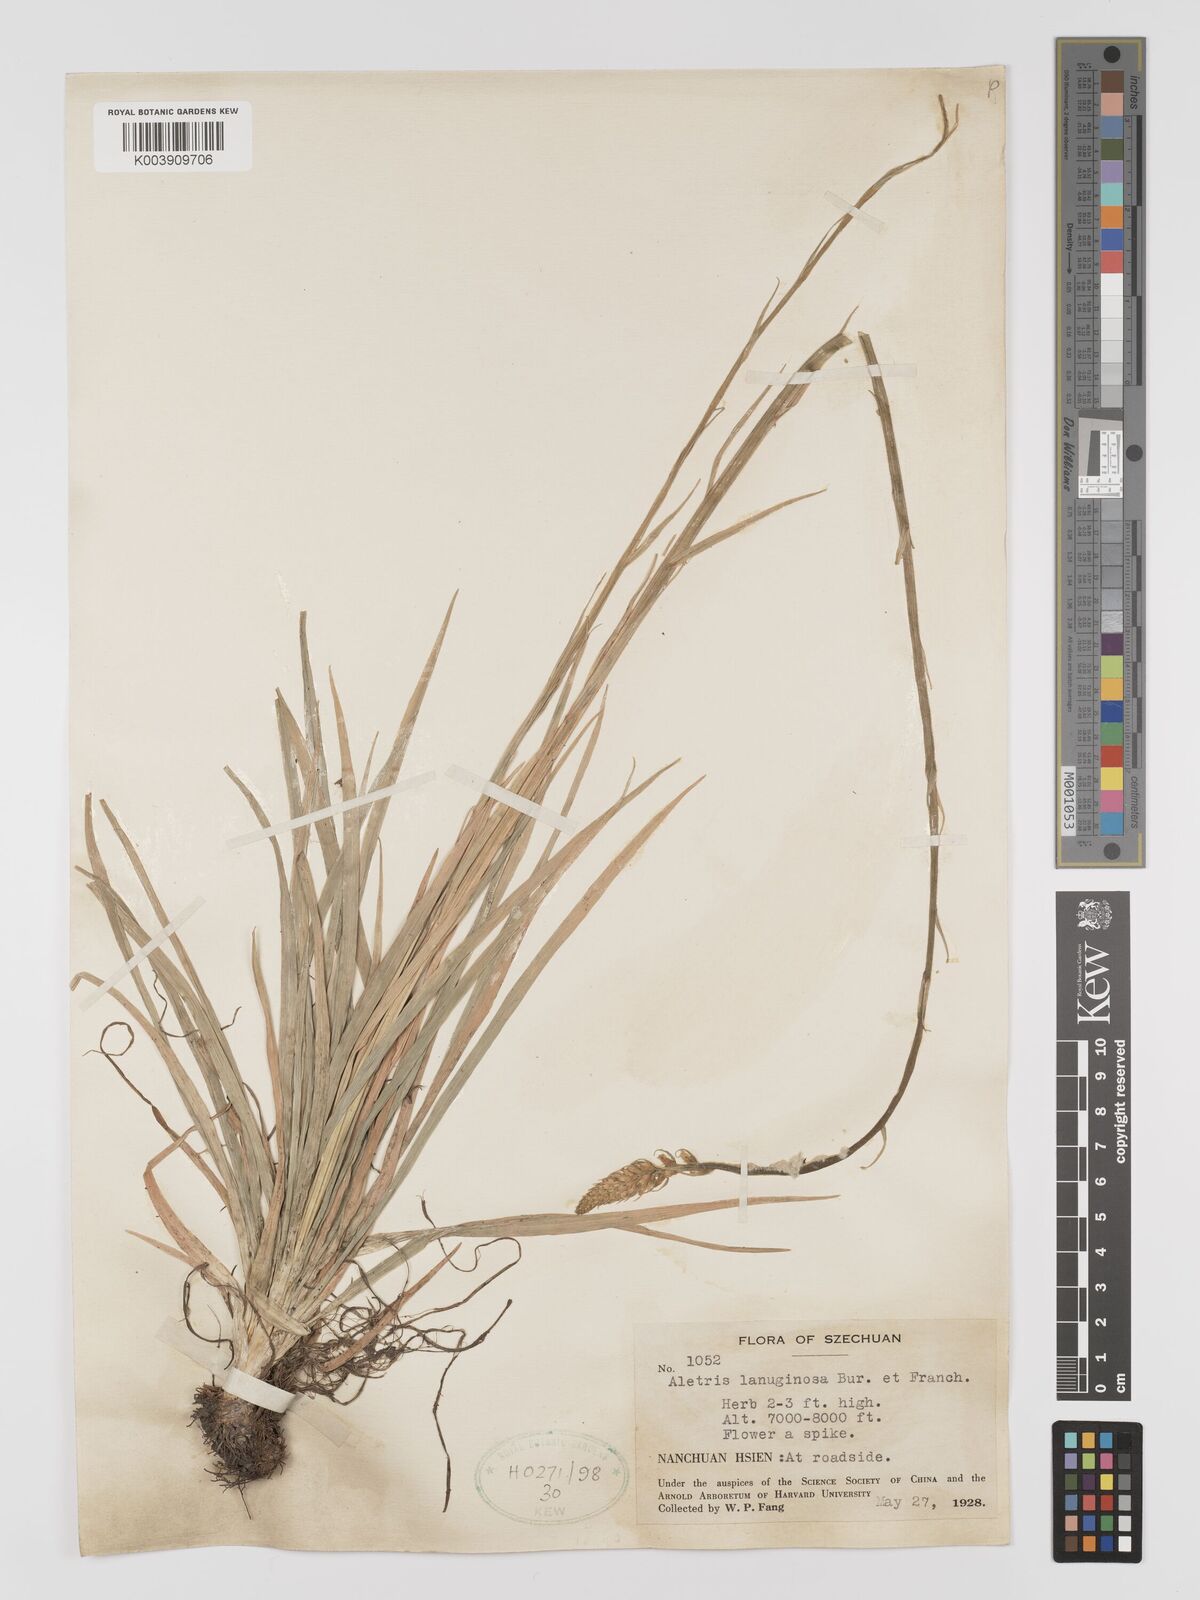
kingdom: Plantae
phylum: Tracheophyta
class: Liliopsida
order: Dioscoreales
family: Nartheciaceae
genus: Aletris
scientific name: Aletris pauciflora
